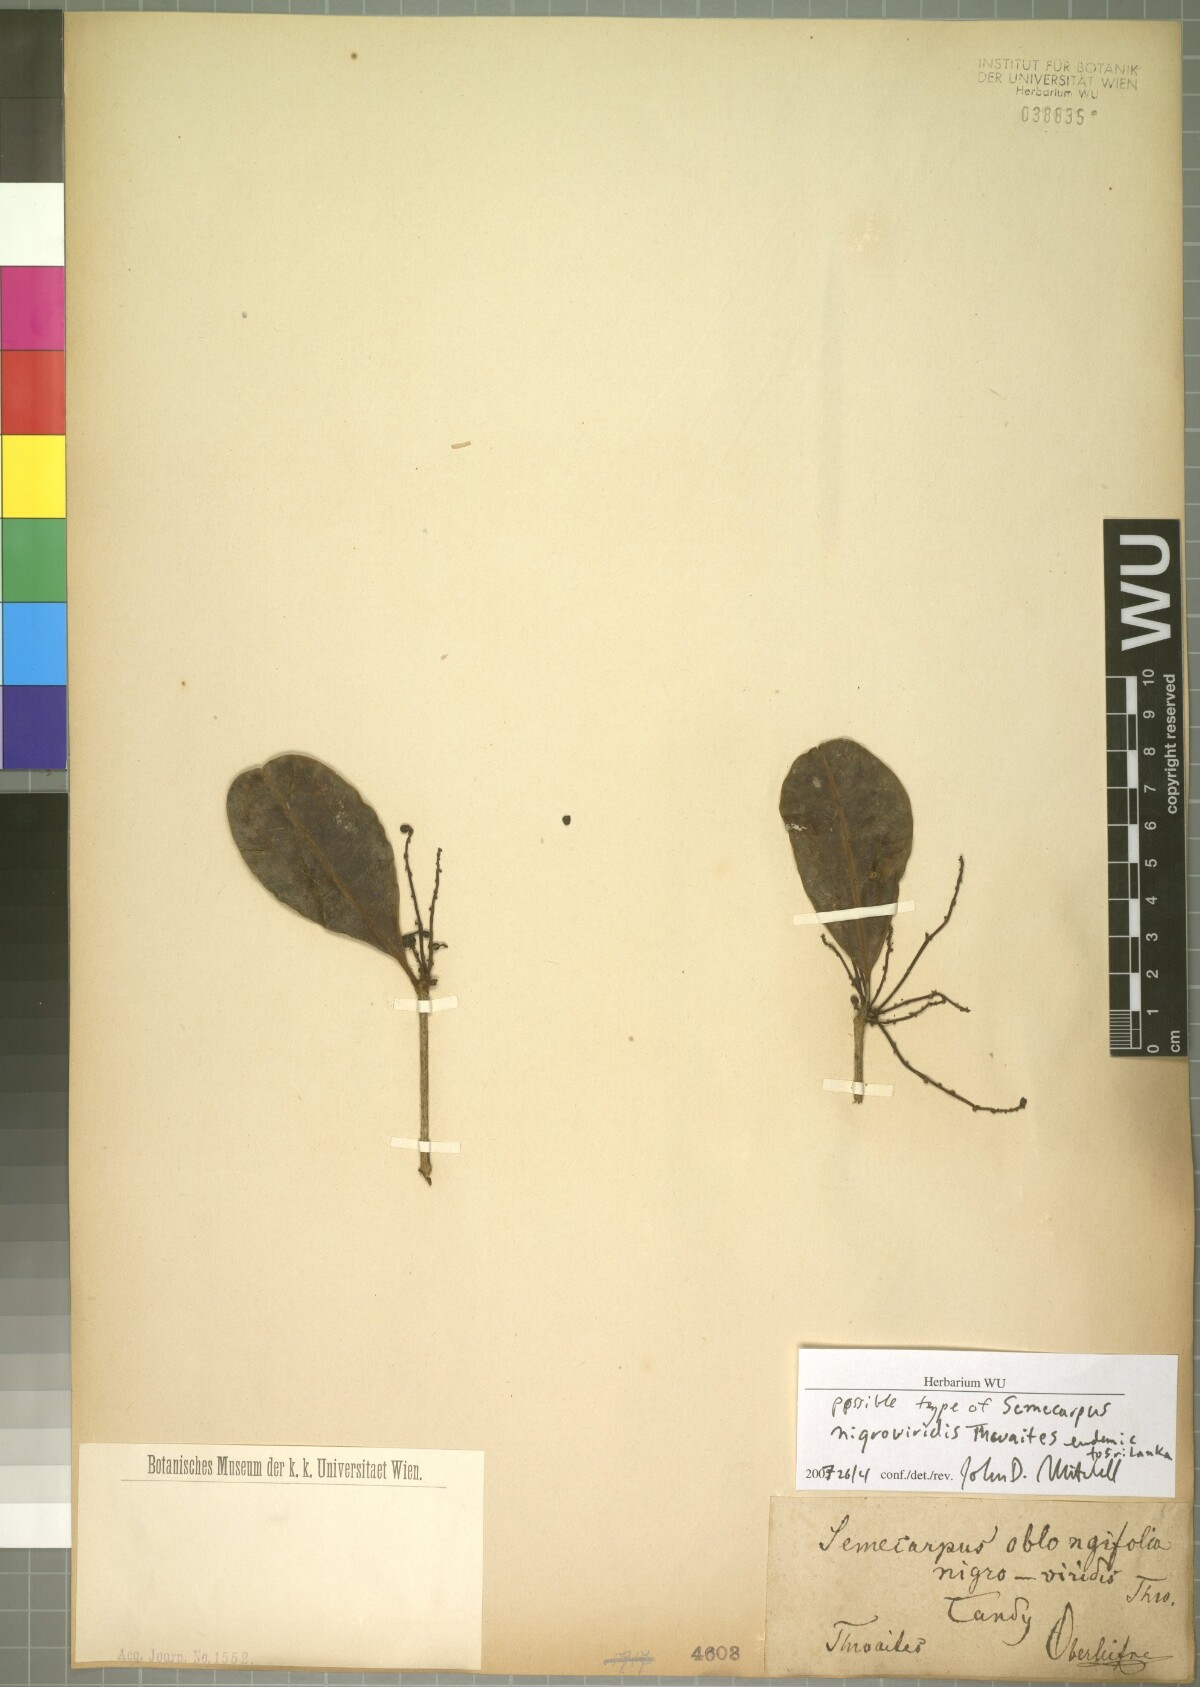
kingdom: Plantae
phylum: Tracheophyta
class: Magnoliopsida
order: Sapindales
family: Anacardiaceae
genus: Semecarpus
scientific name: Semecarpus nigroviridis
